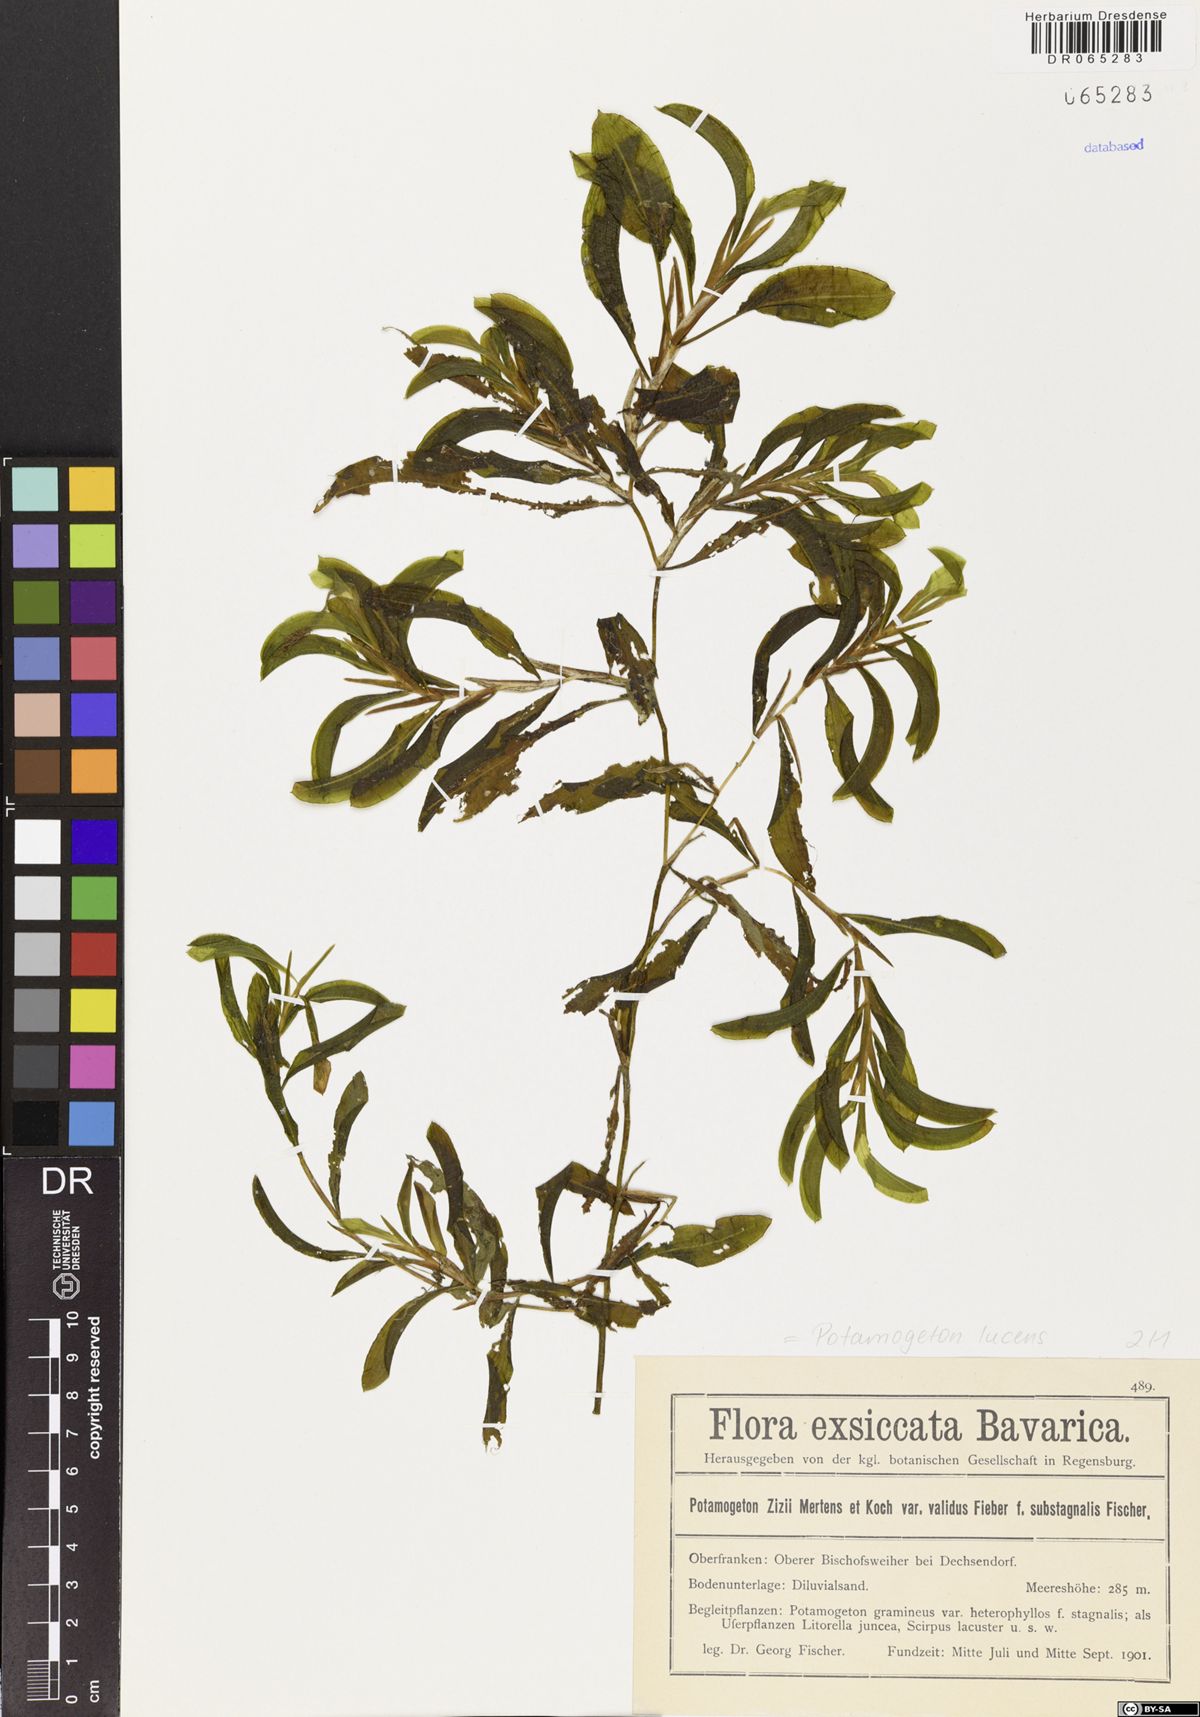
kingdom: Plantae
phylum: Tracheophyta
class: Liliopsida
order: Alismatales
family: Potamogetonaceae
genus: Potamogeton
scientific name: Potamogeton lucens
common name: Shining pondweed
